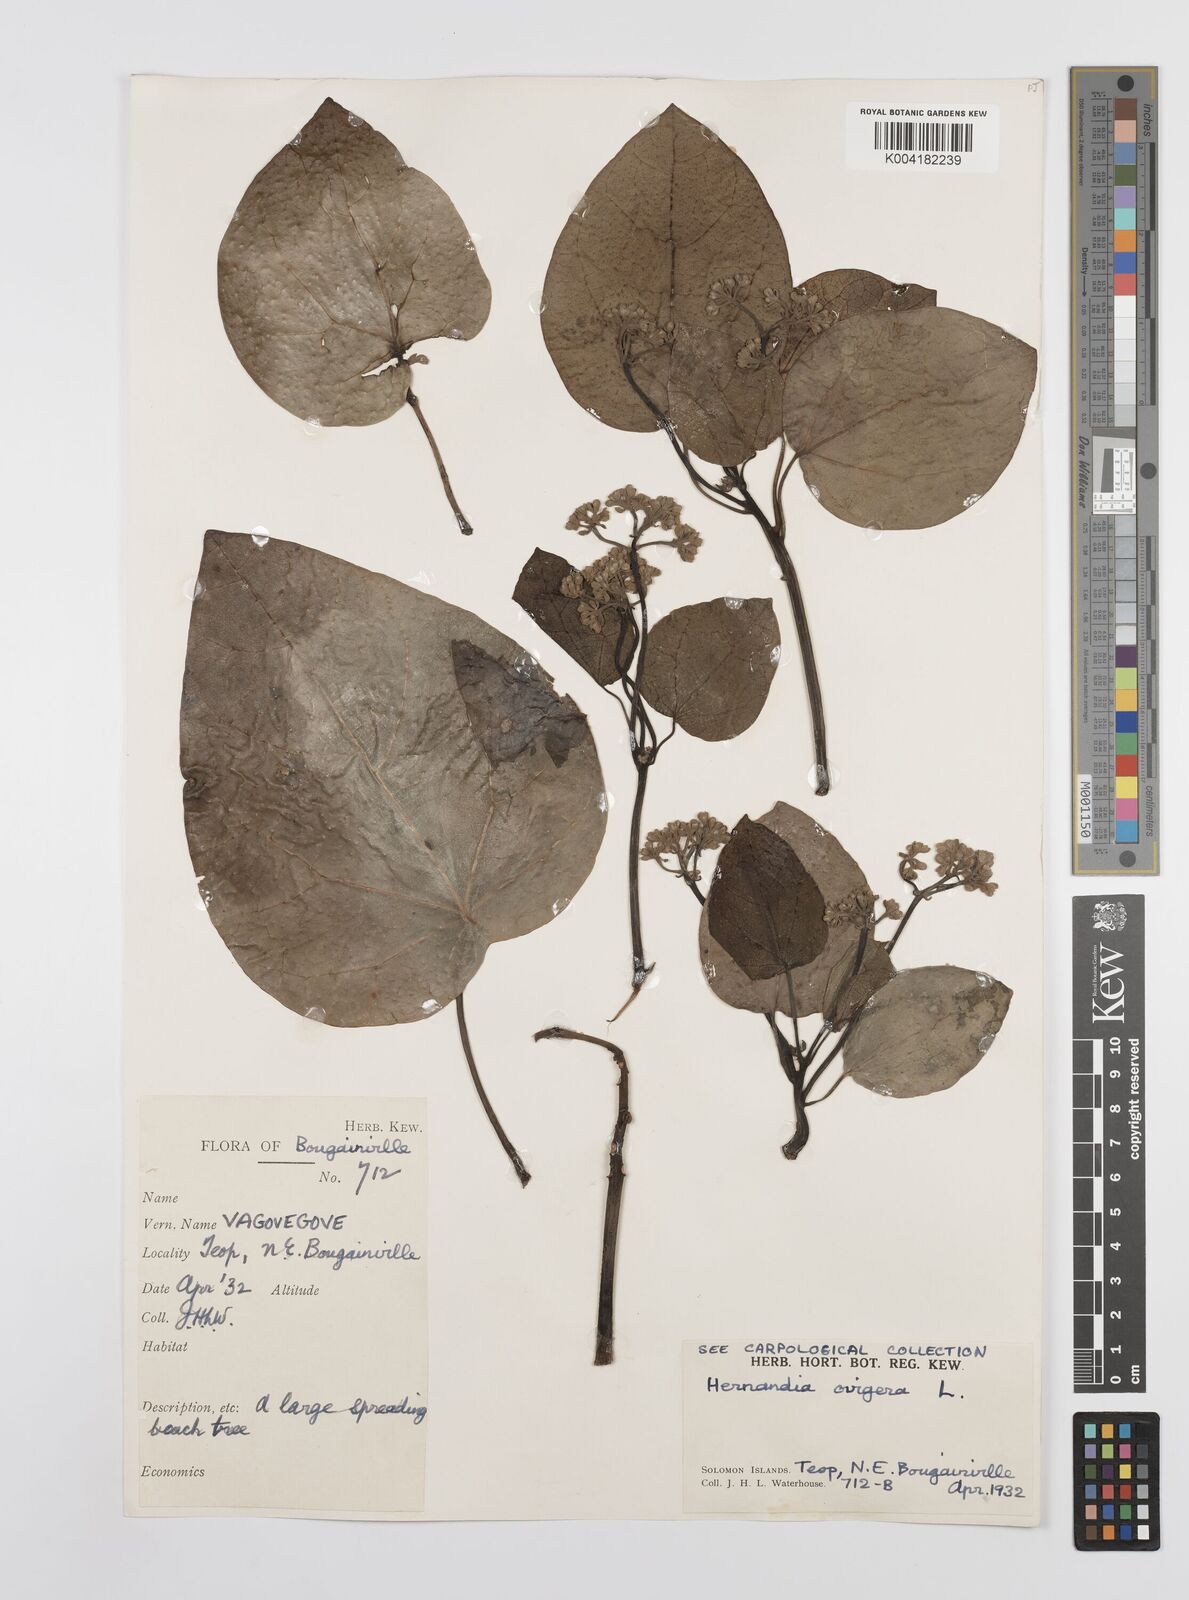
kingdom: Plantae
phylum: Tracheophyta
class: Magnoliopsida
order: Laurales
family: Hernandiaceae
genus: Hernandia
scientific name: Hernandia
